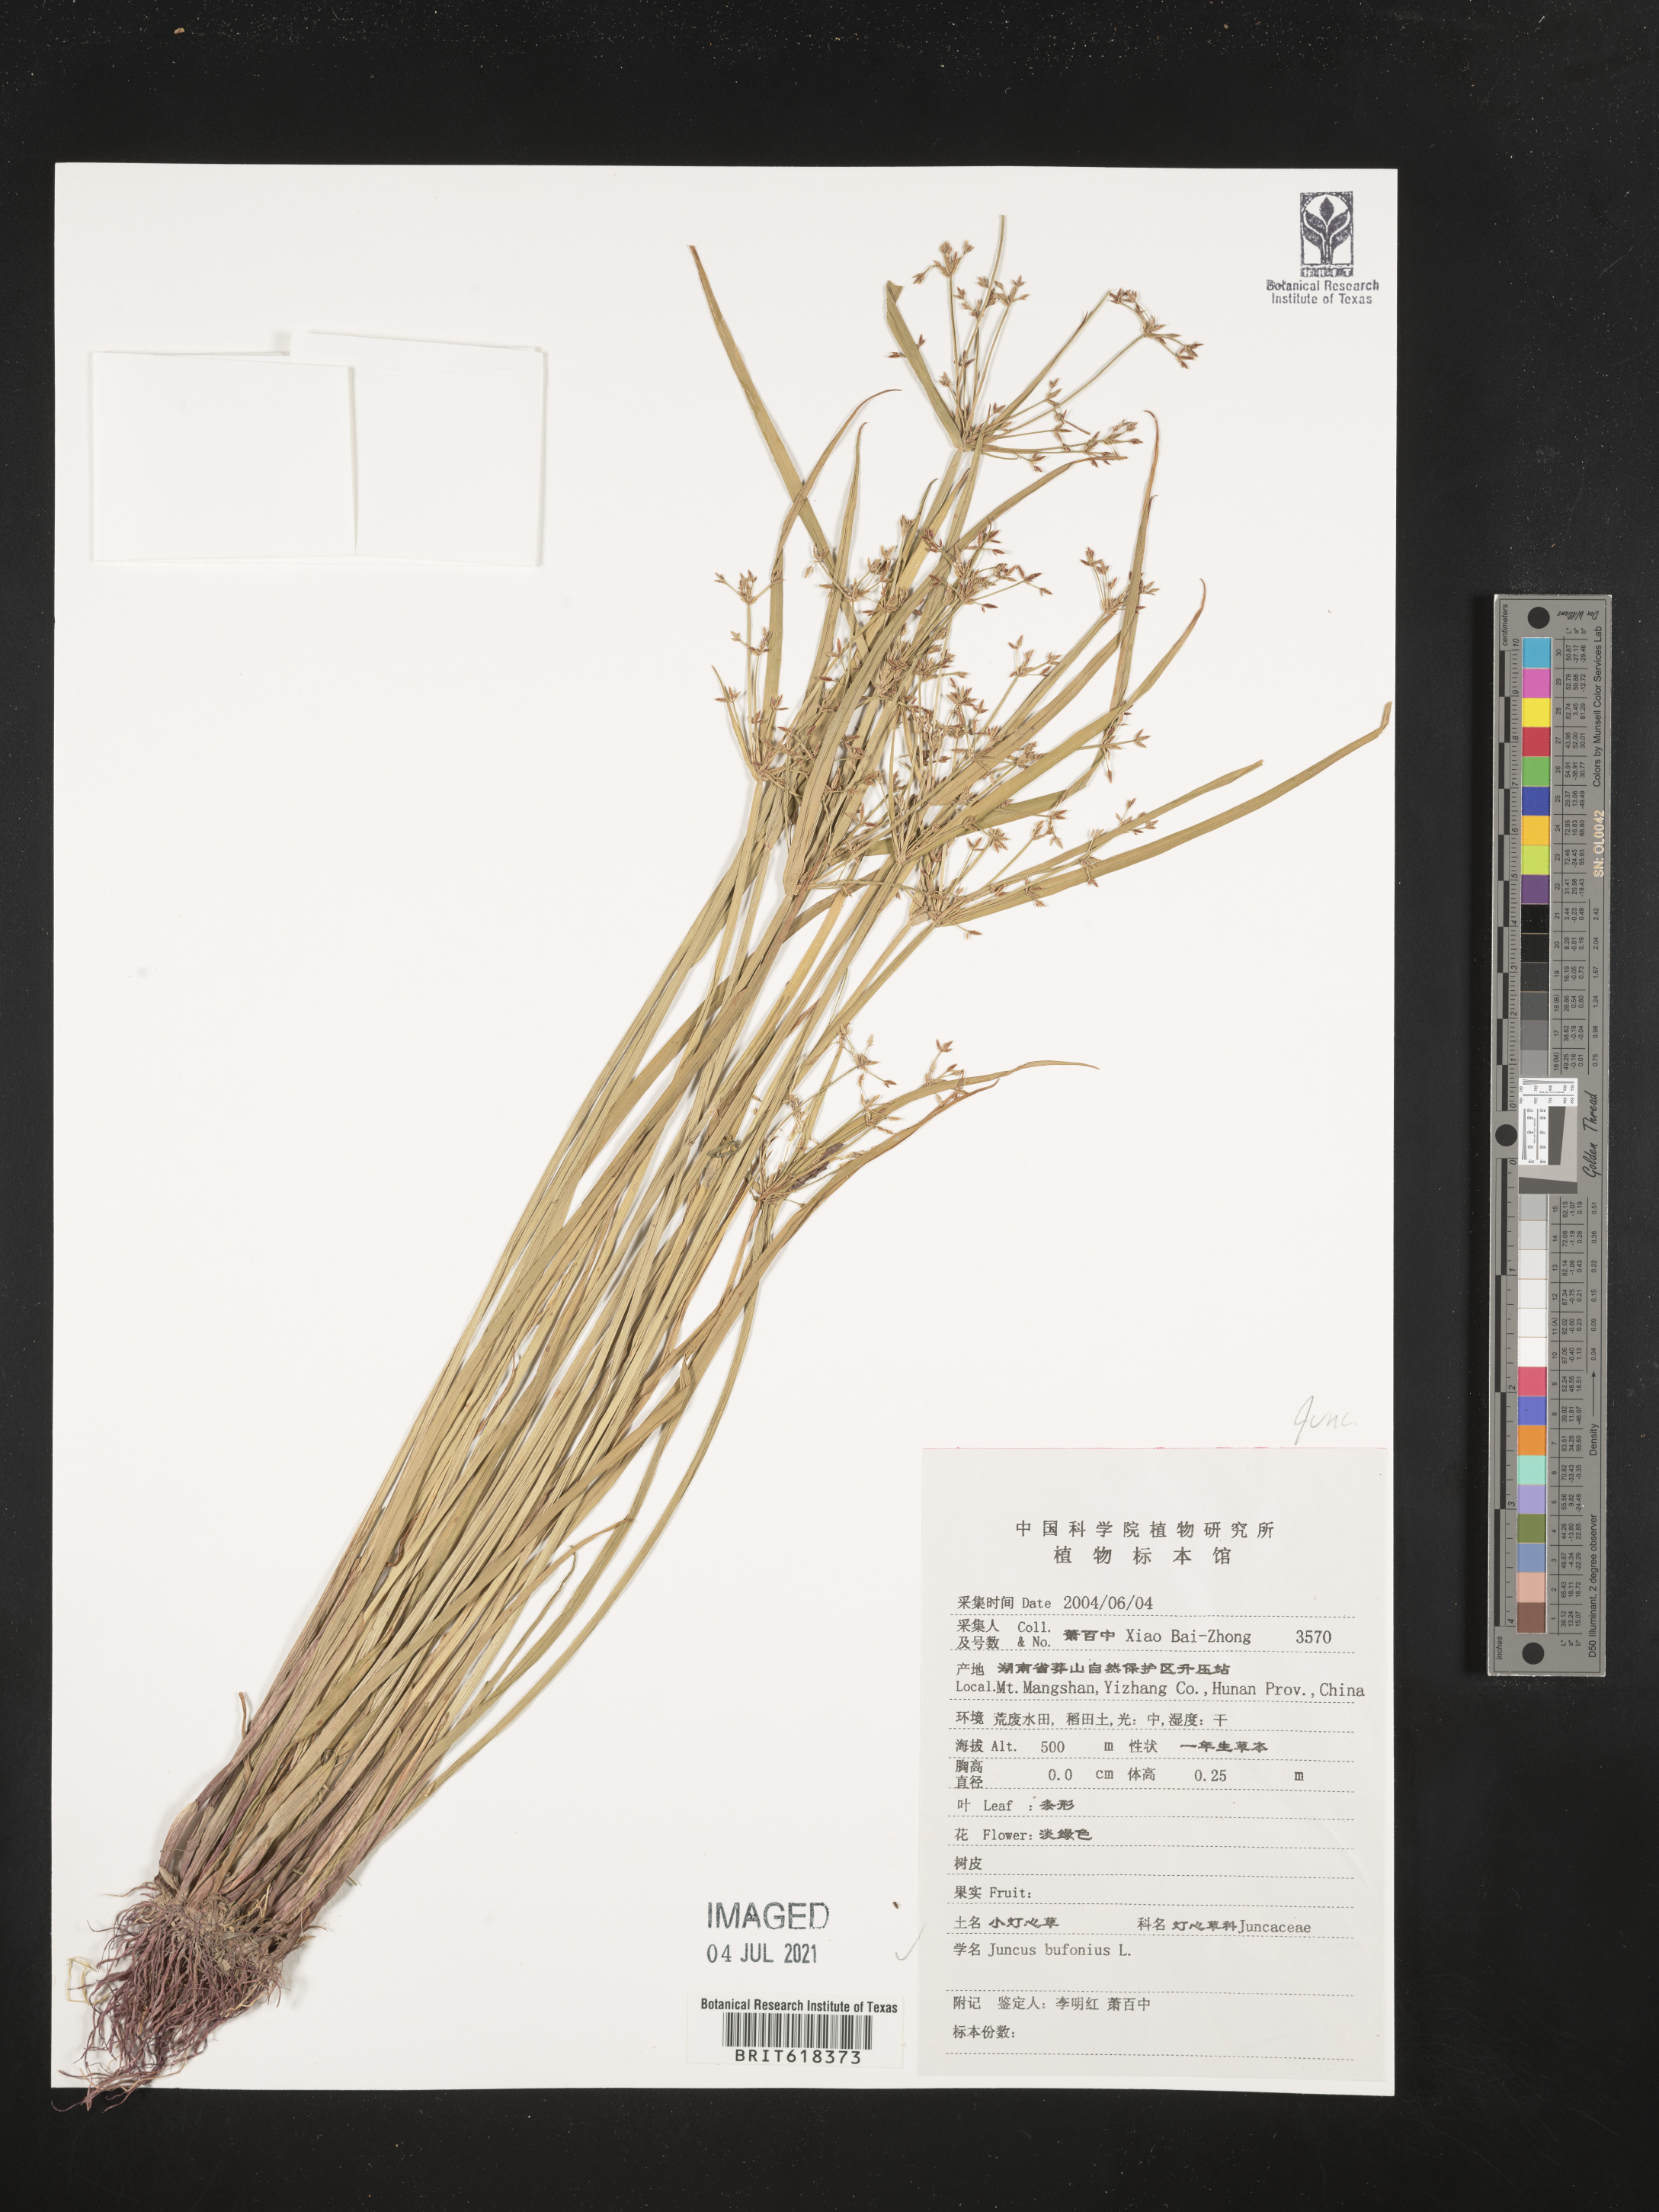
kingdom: Plantae
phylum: Tracheophyta
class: Liliopsida
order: Poales
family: Juncaceae
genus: Juncus
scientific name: Juncus bufonius
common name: Toad rush
